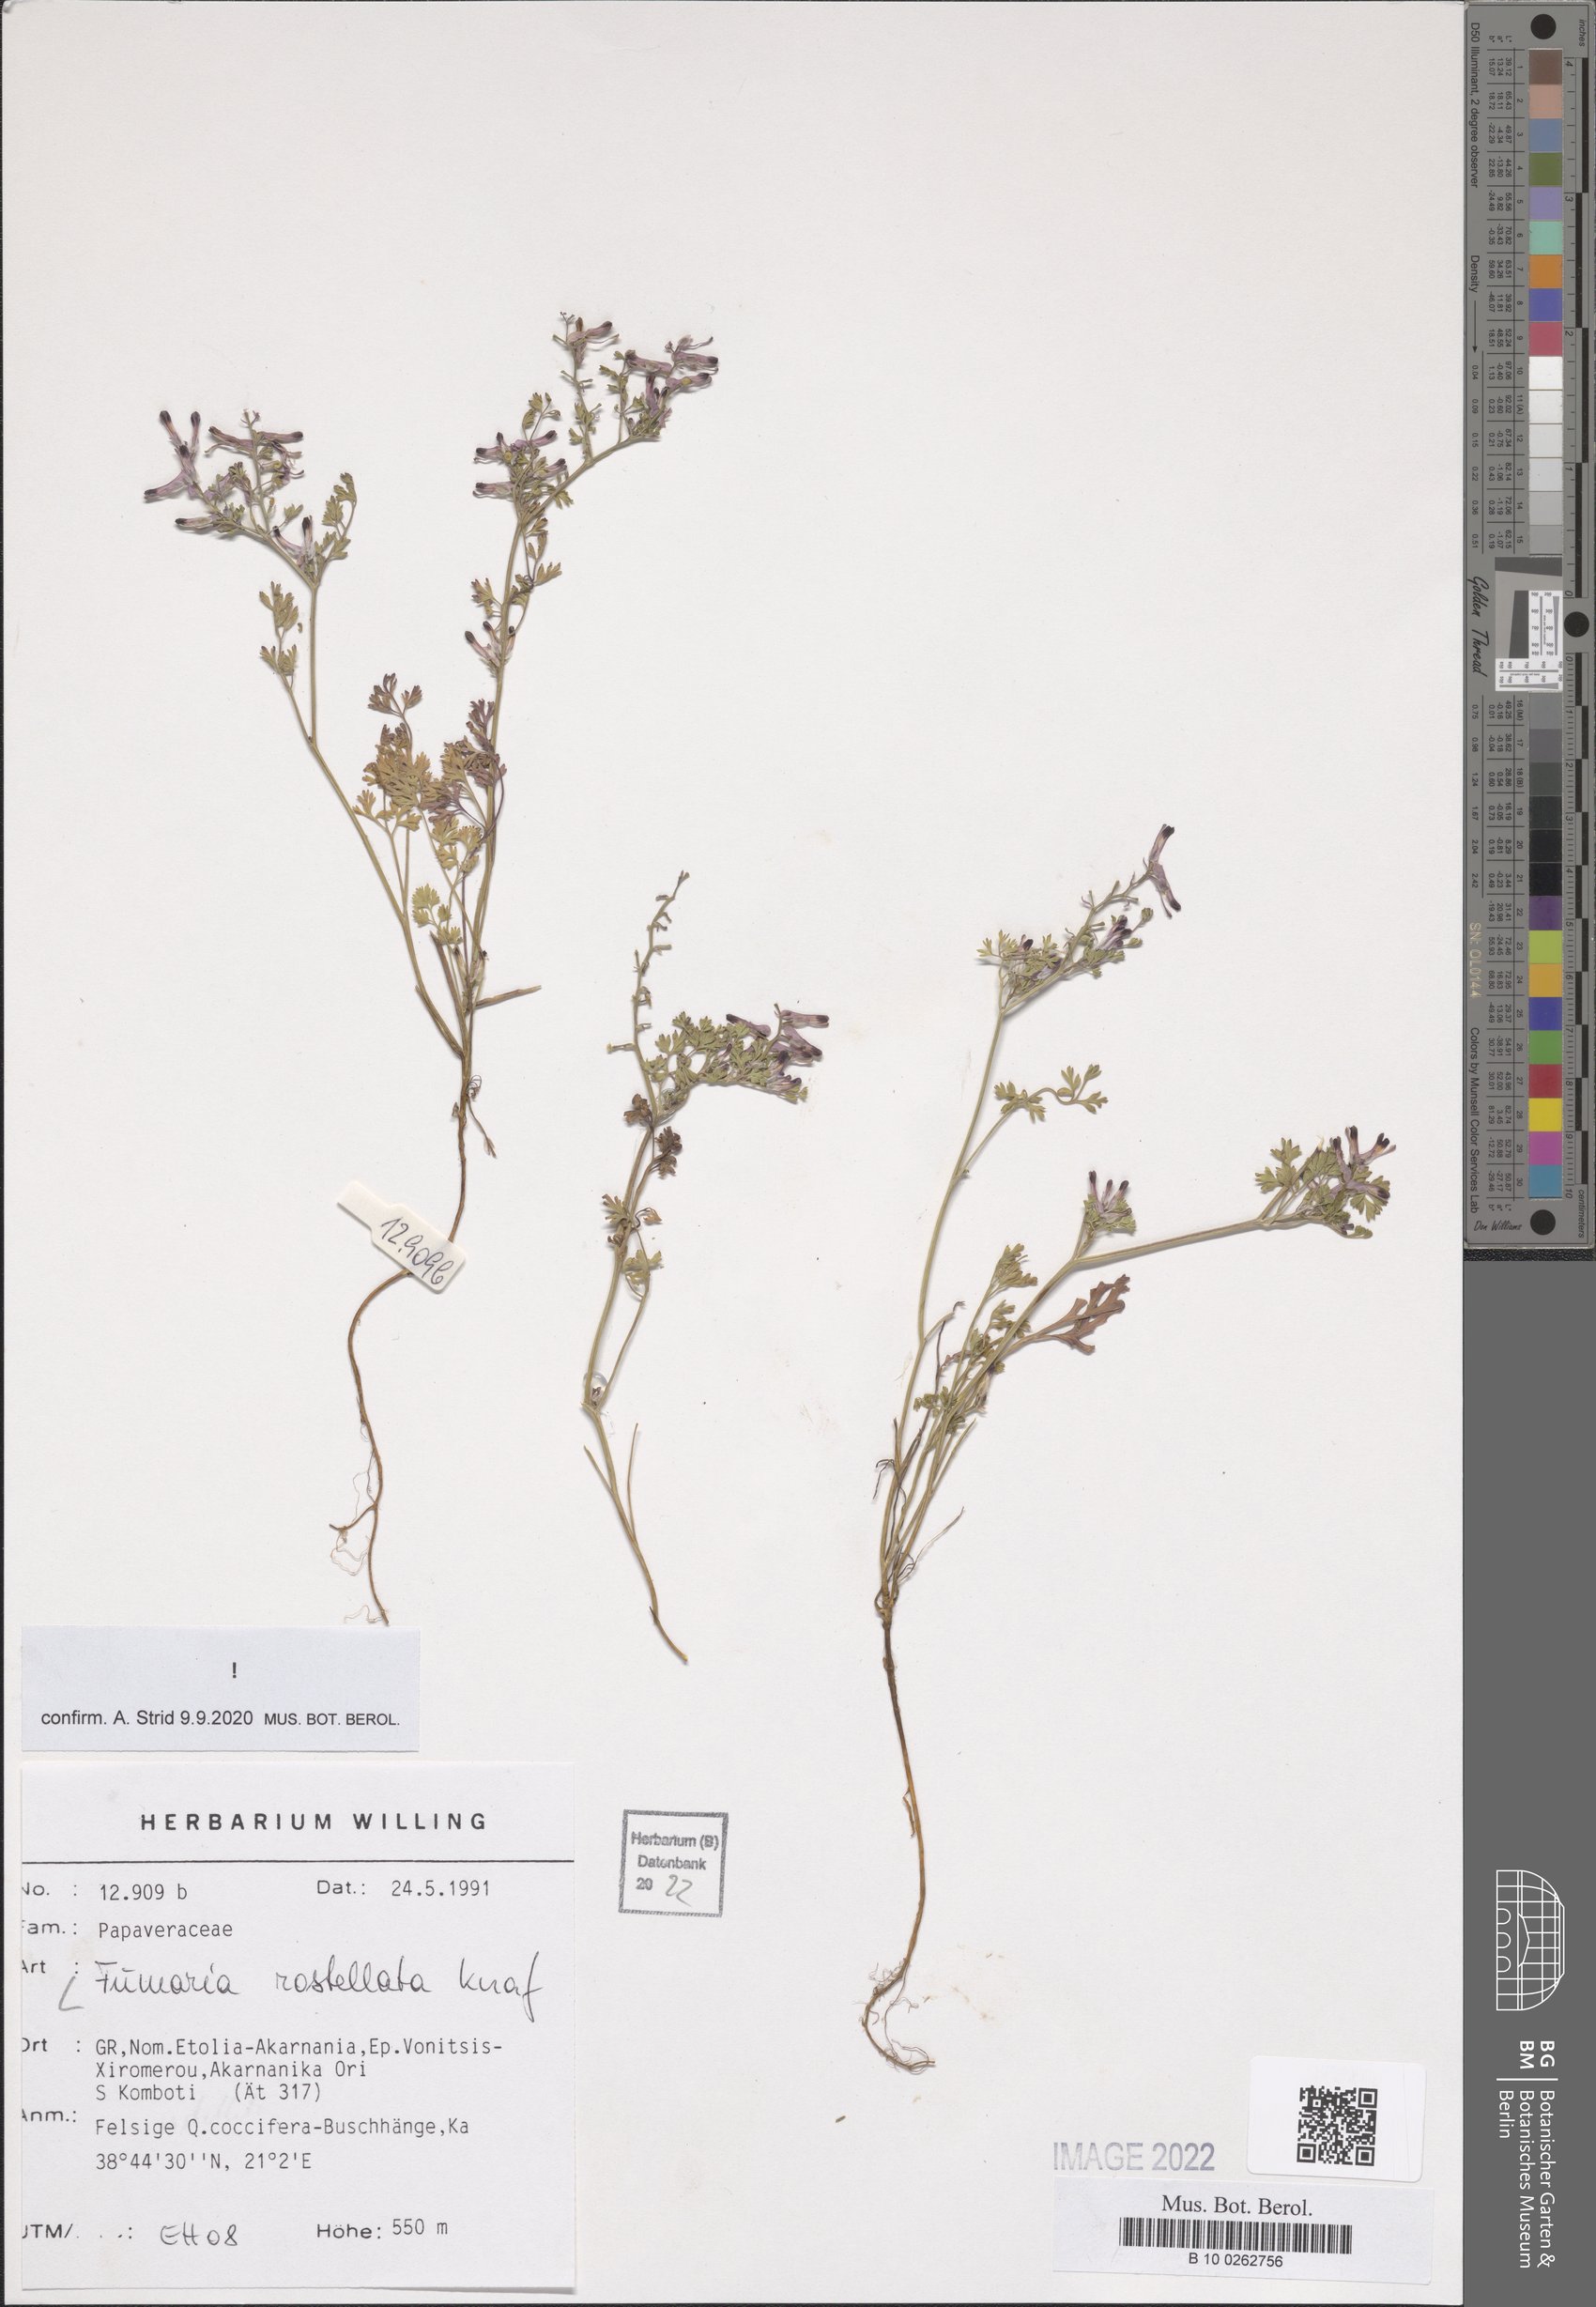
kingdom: Plantae
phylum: Tracheophyta
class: Magnoliopsida
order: Ranunculales
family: Papaveraceae
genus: Fumaria
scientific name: Fumaria rostellata
